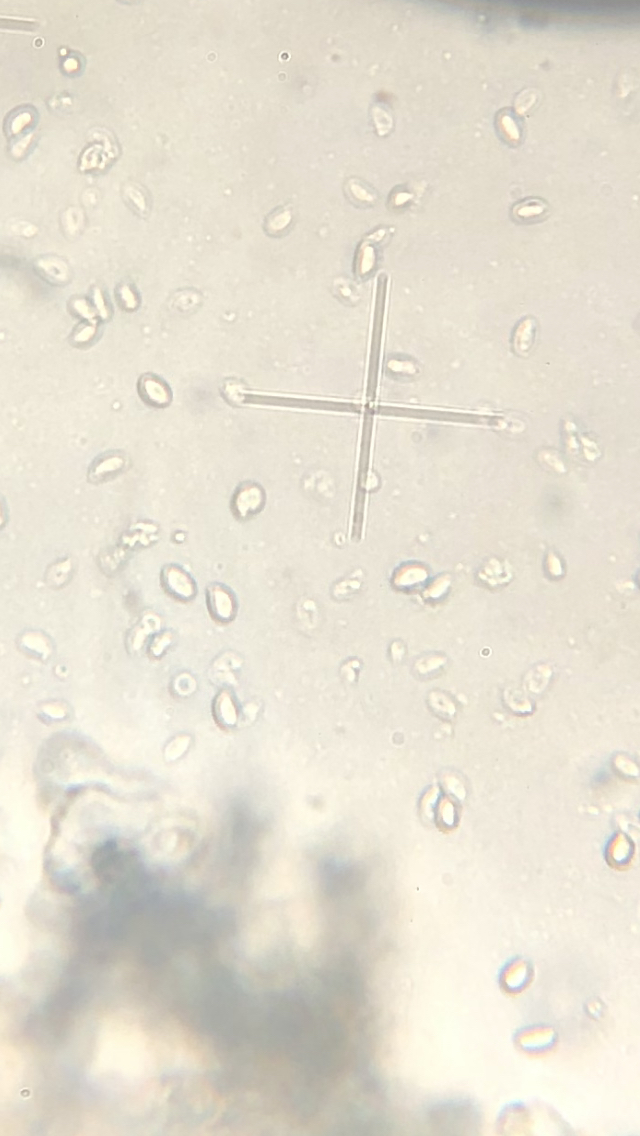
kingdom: Fungi
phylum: Basidiomycota
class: Agaricomycetes
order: Agaricales
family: Omphalotaceae
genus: Gymnopus
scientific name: Gymnopus ocior
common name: mørk fladhat
